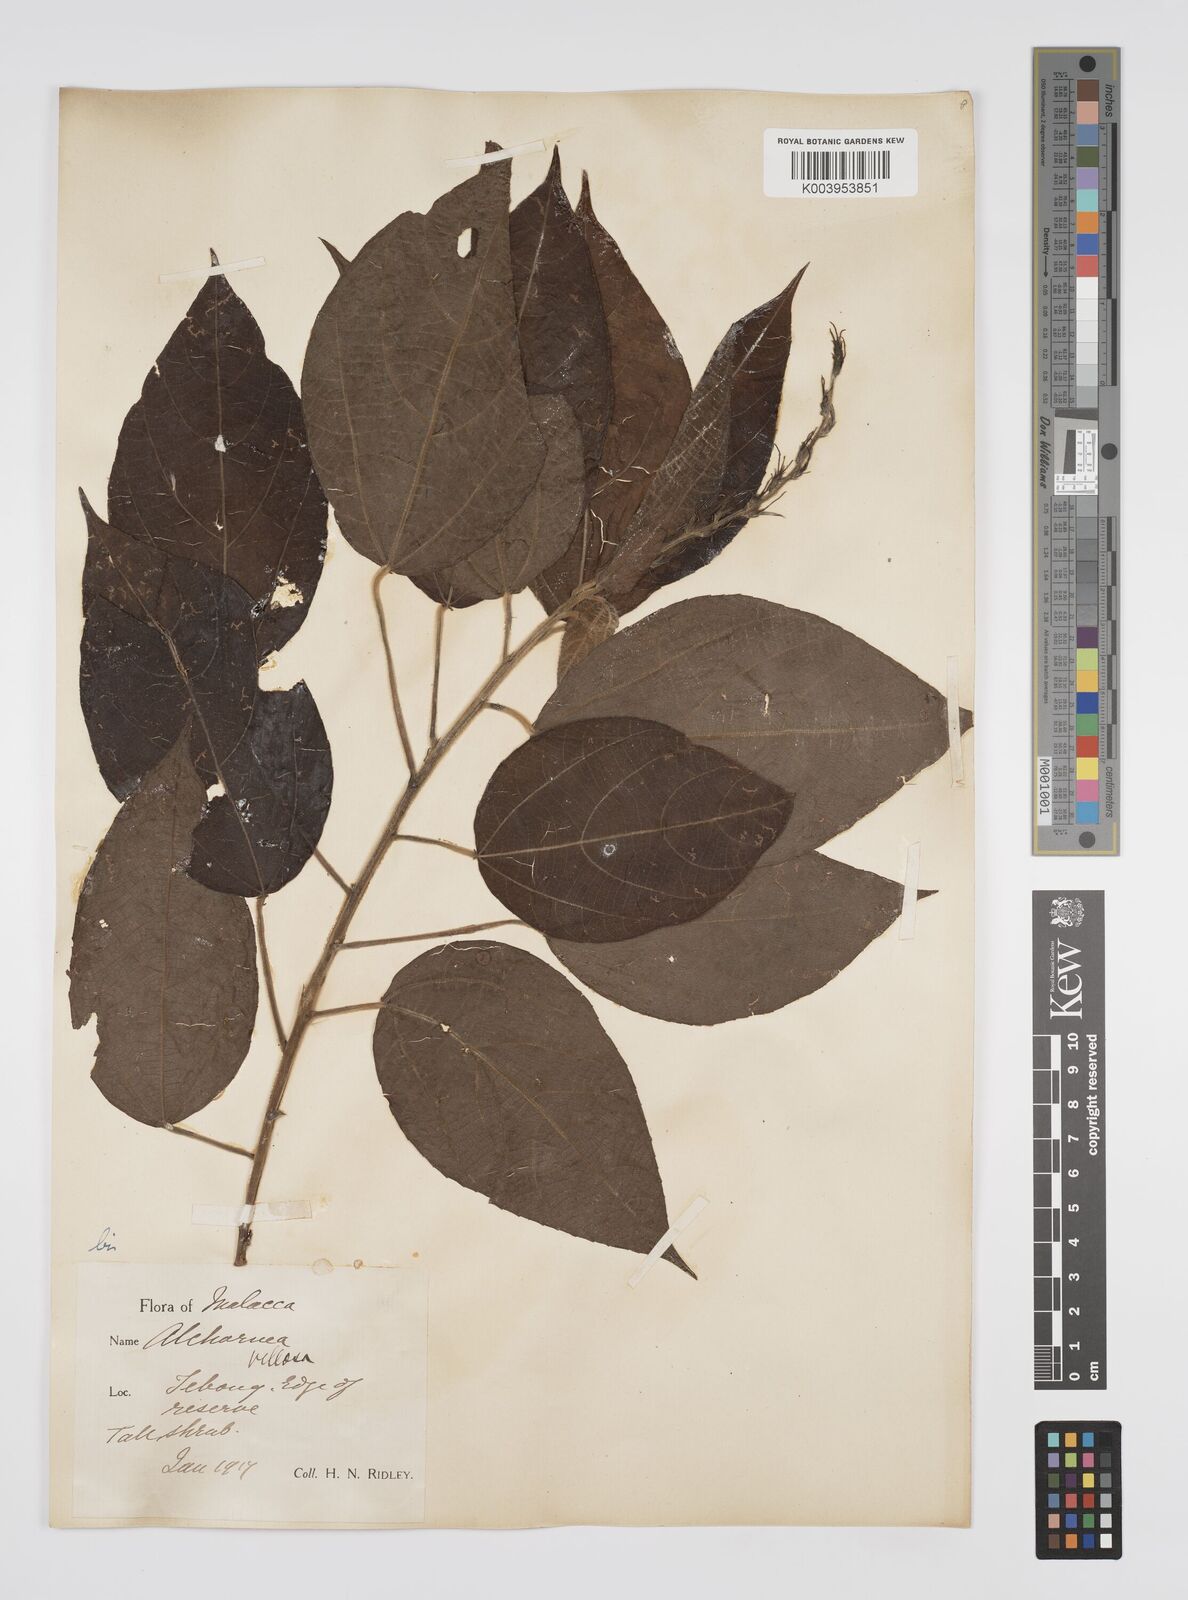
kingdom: Plantae
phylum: Tracheophyta
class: Magnoliopsida
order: Malpighiales
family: Euphorbiaceae
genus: Alchornea
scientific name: Alchornea tiliifolia
